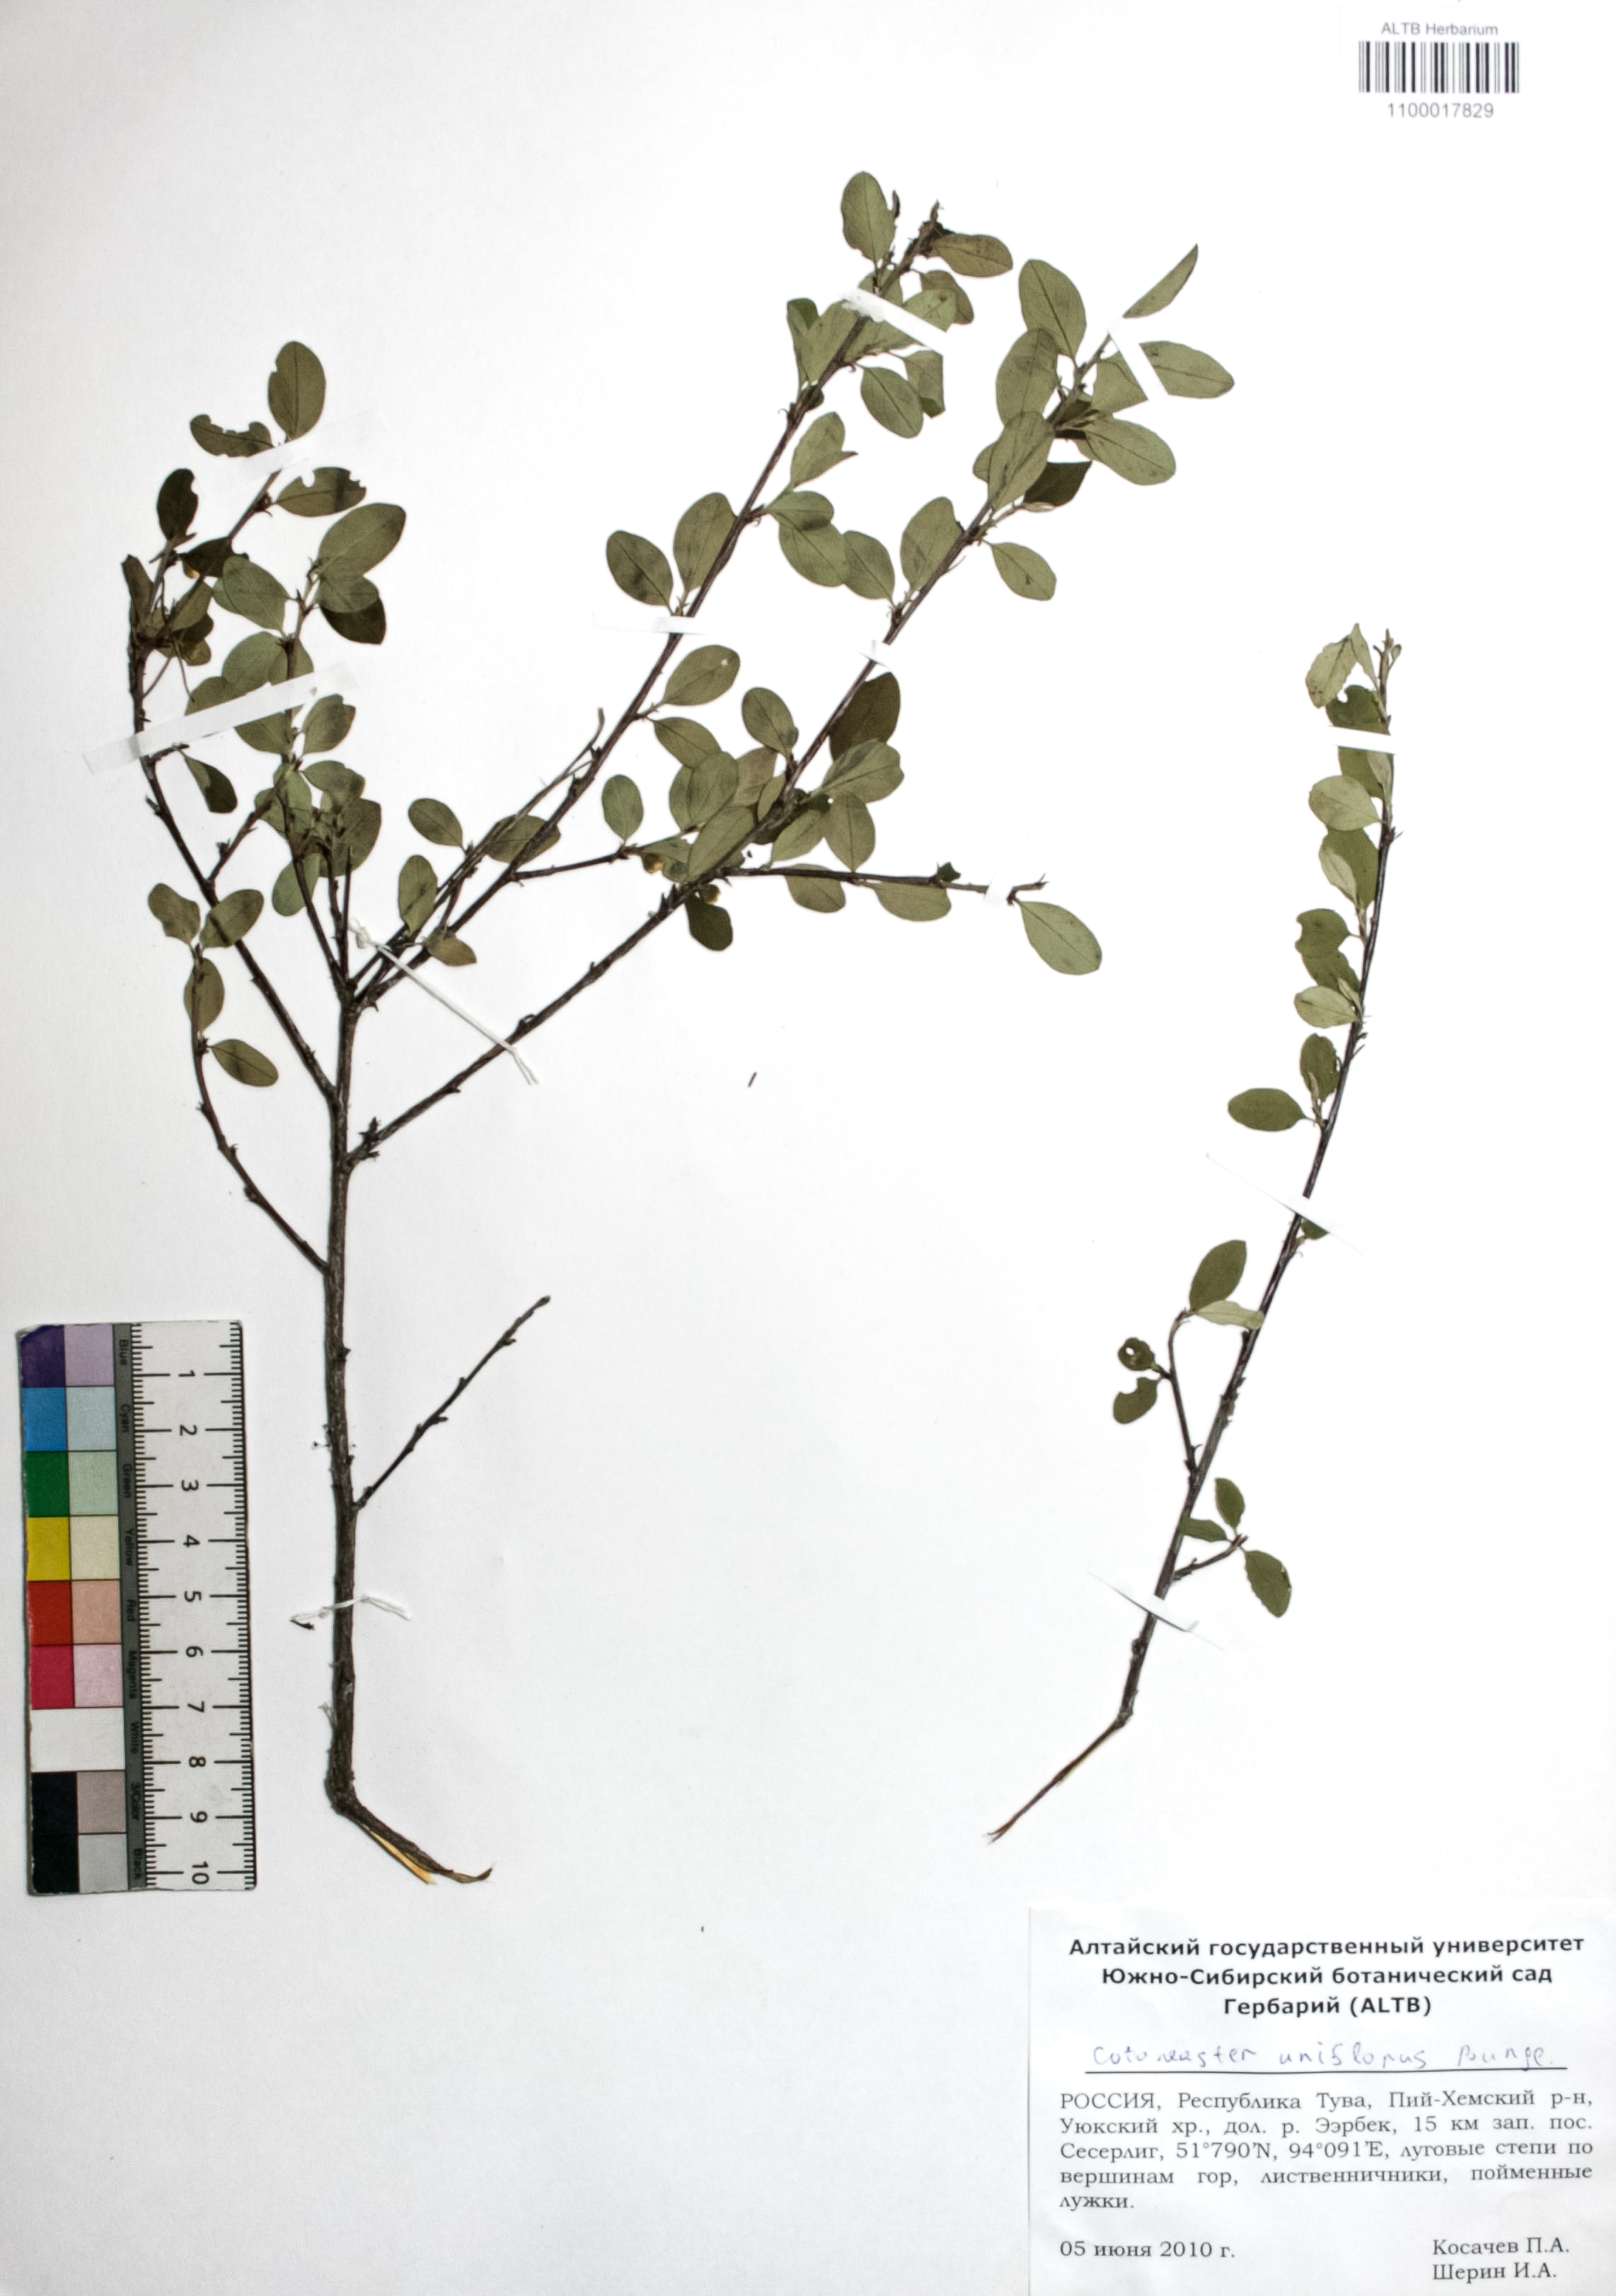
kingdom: Plantae
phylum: Tracheophyta
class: Magnoliopsida
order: Rosales
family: Rosaceae
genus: Cotoneaster
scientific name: Cotoneaster uniflorus
